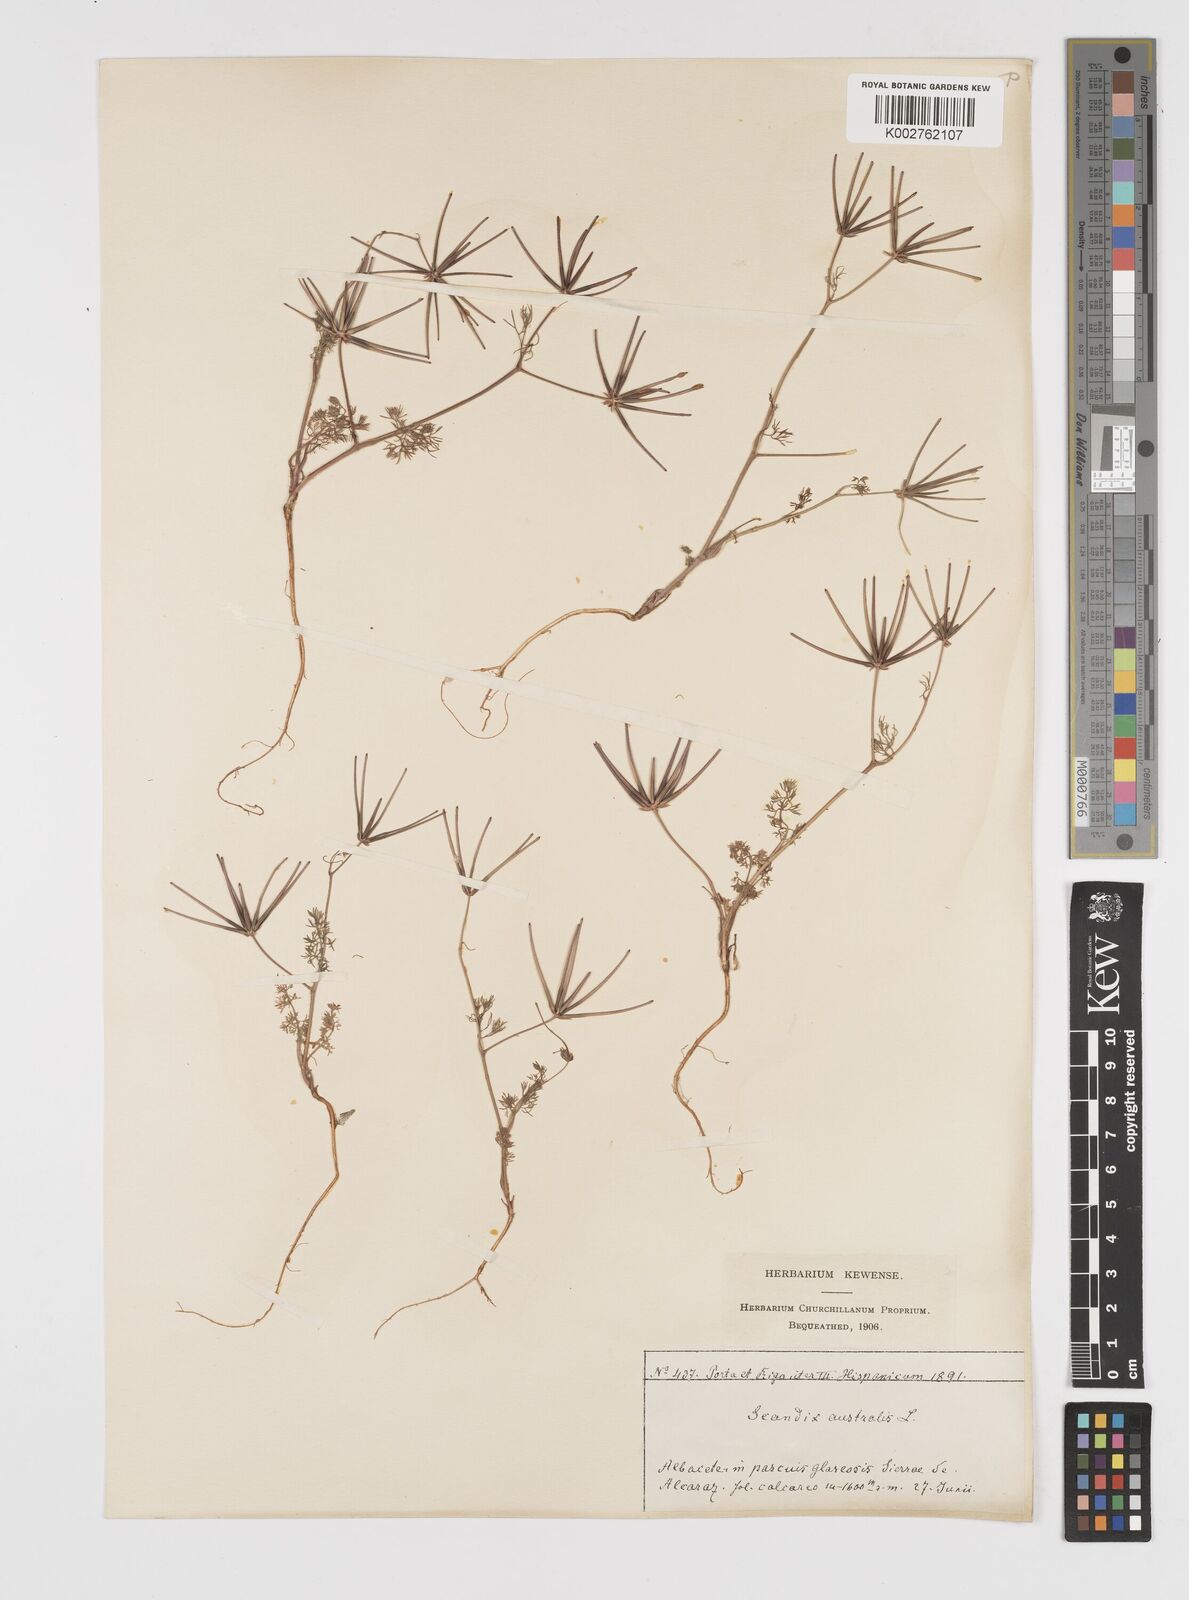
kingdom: Plantae
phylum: Tracheophyta
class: Magnoliopsida
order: Apiales
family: Apiaceae
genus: Scandix
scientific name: Scandix australis
